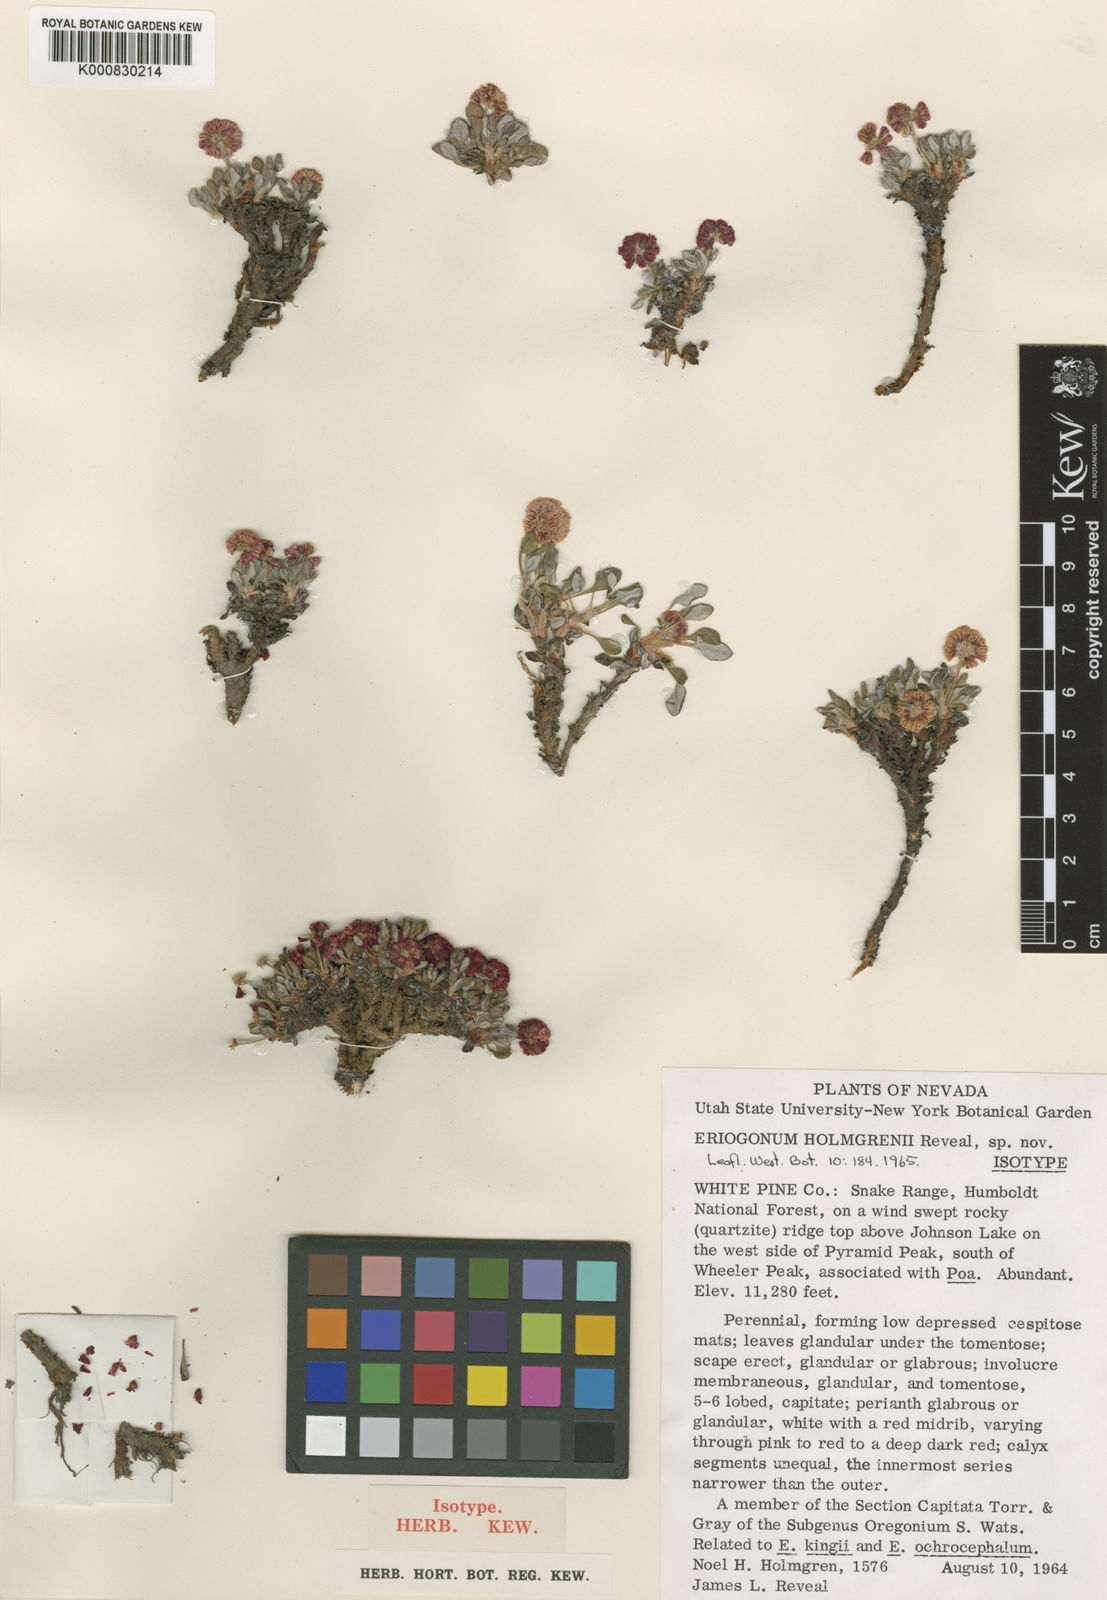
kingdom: Plantae
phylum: Tracheophyta
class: Magnoliopsida
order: Caryophyllales
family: Polygonaceae
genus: Eriogonum
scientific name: Eriogonum holmgrenii
